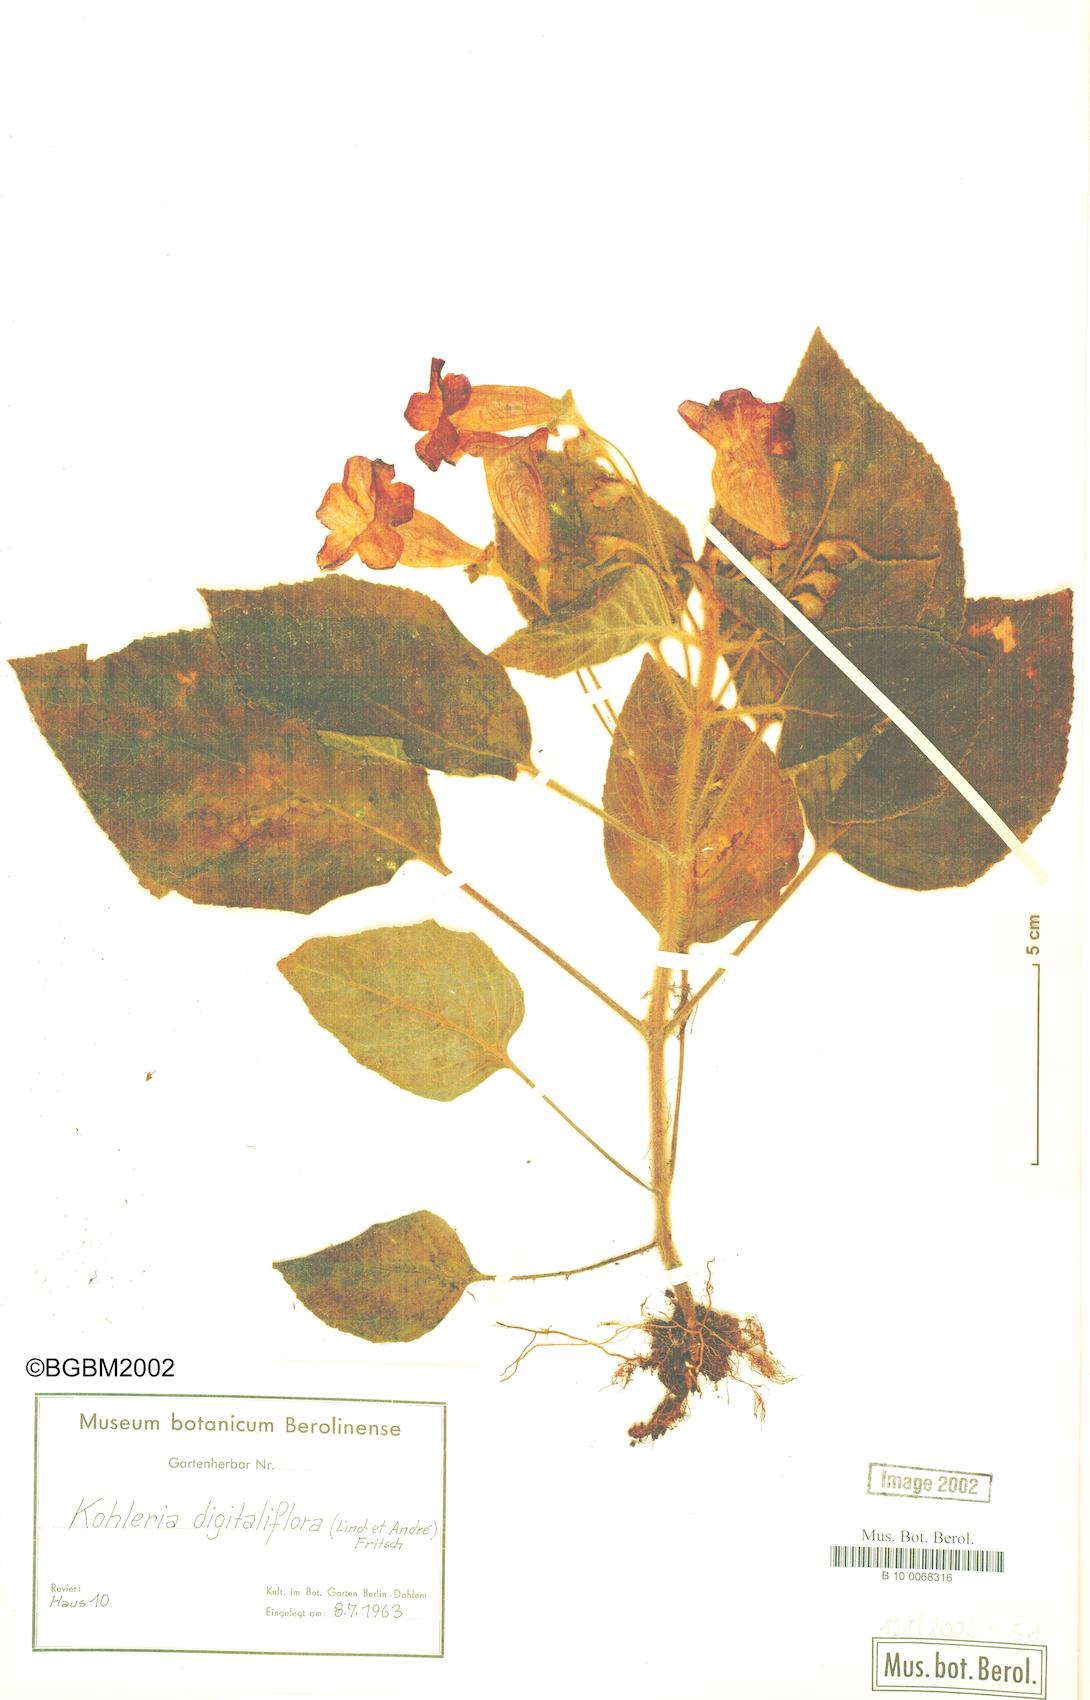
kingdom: Plantae
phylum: Tracheophyta
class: Magnoliopsida
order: Lamiales
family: Gesneriaceae
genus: Kohleria
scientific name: Kohleria warszewiczii
